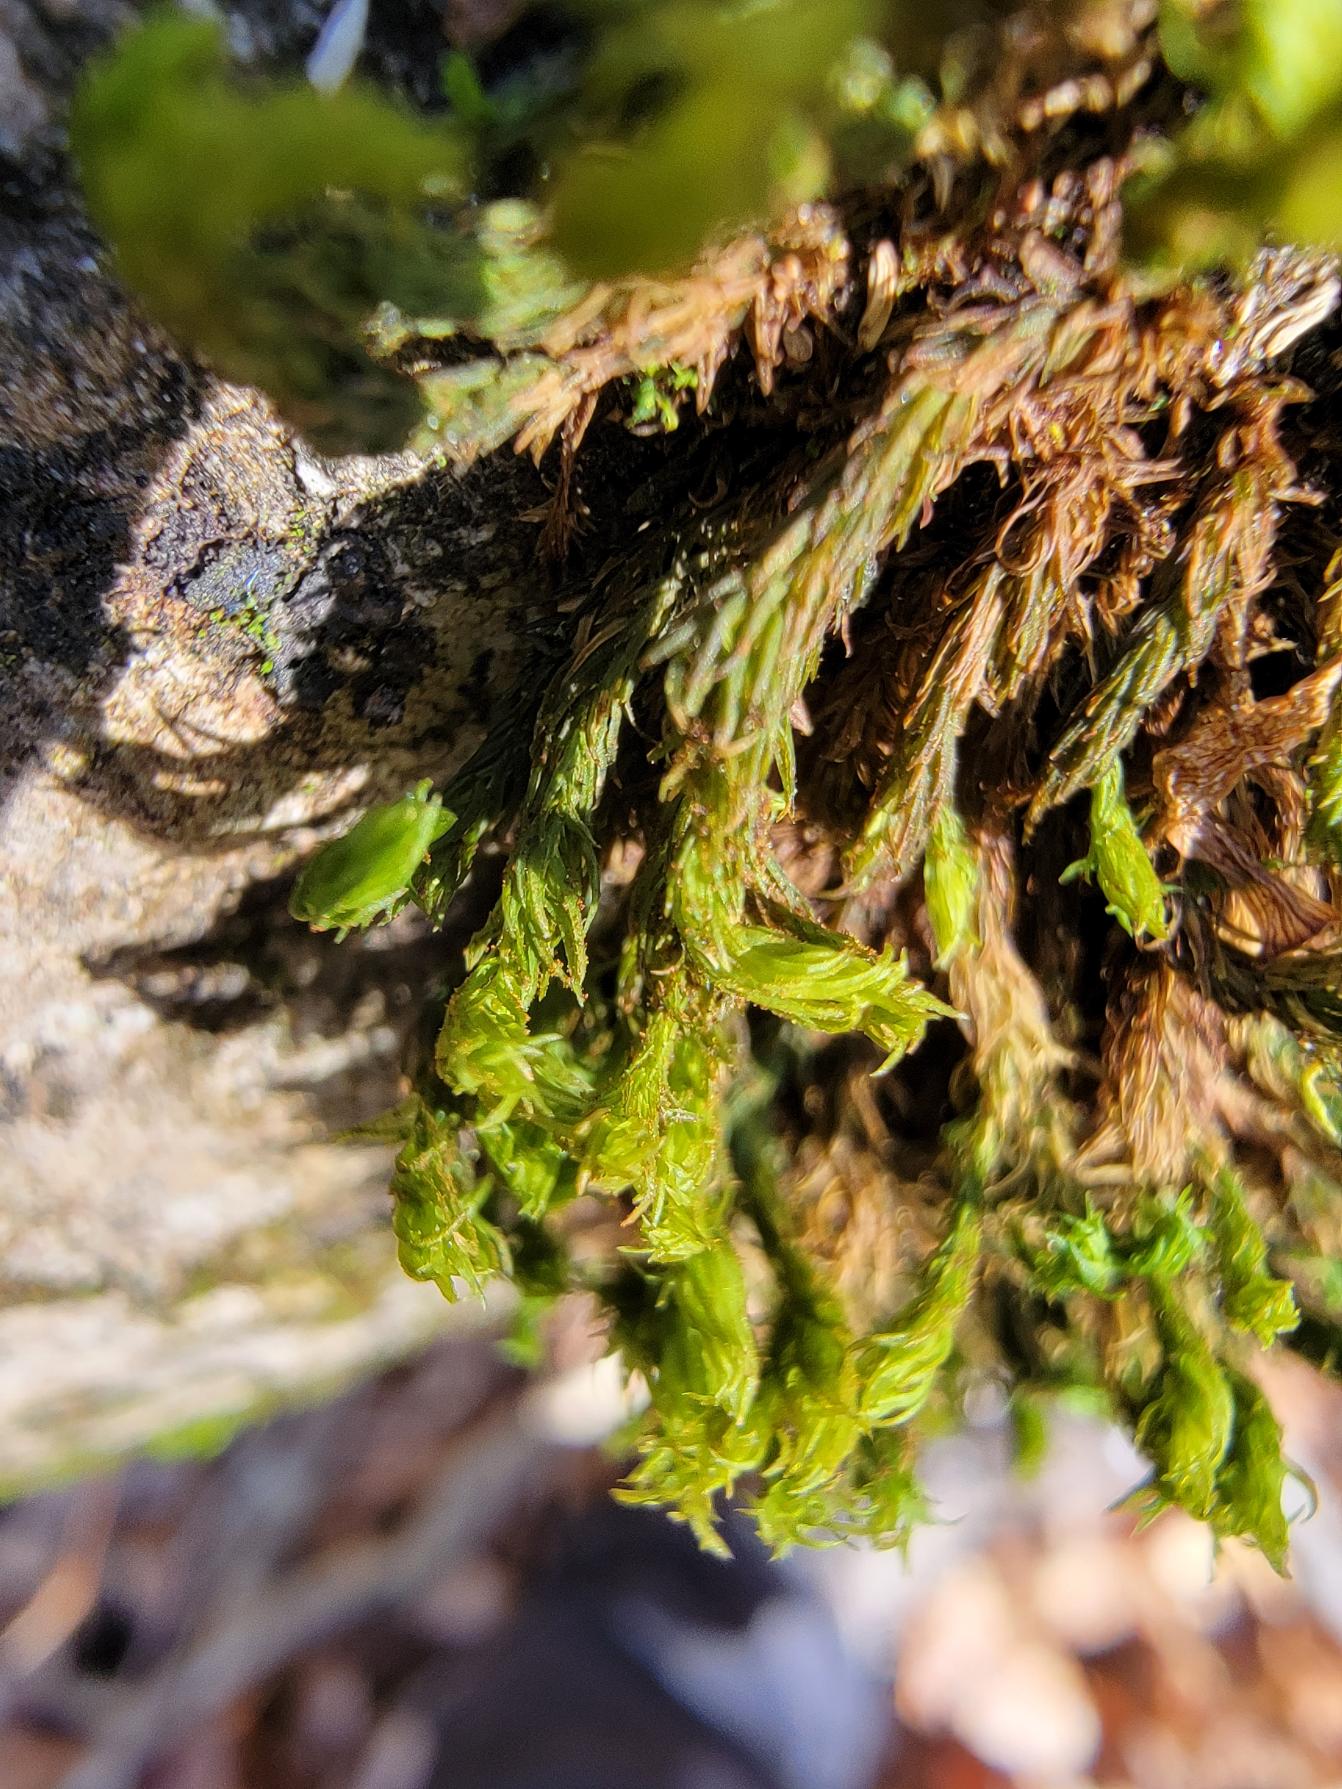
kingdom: Plantae
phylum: Bryophyta
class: Bryopsida
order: Orthotrichales
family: Orthotrichaceae
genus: Pulvigera
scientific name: Pulvigera lyellii
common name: Stor furehætte
